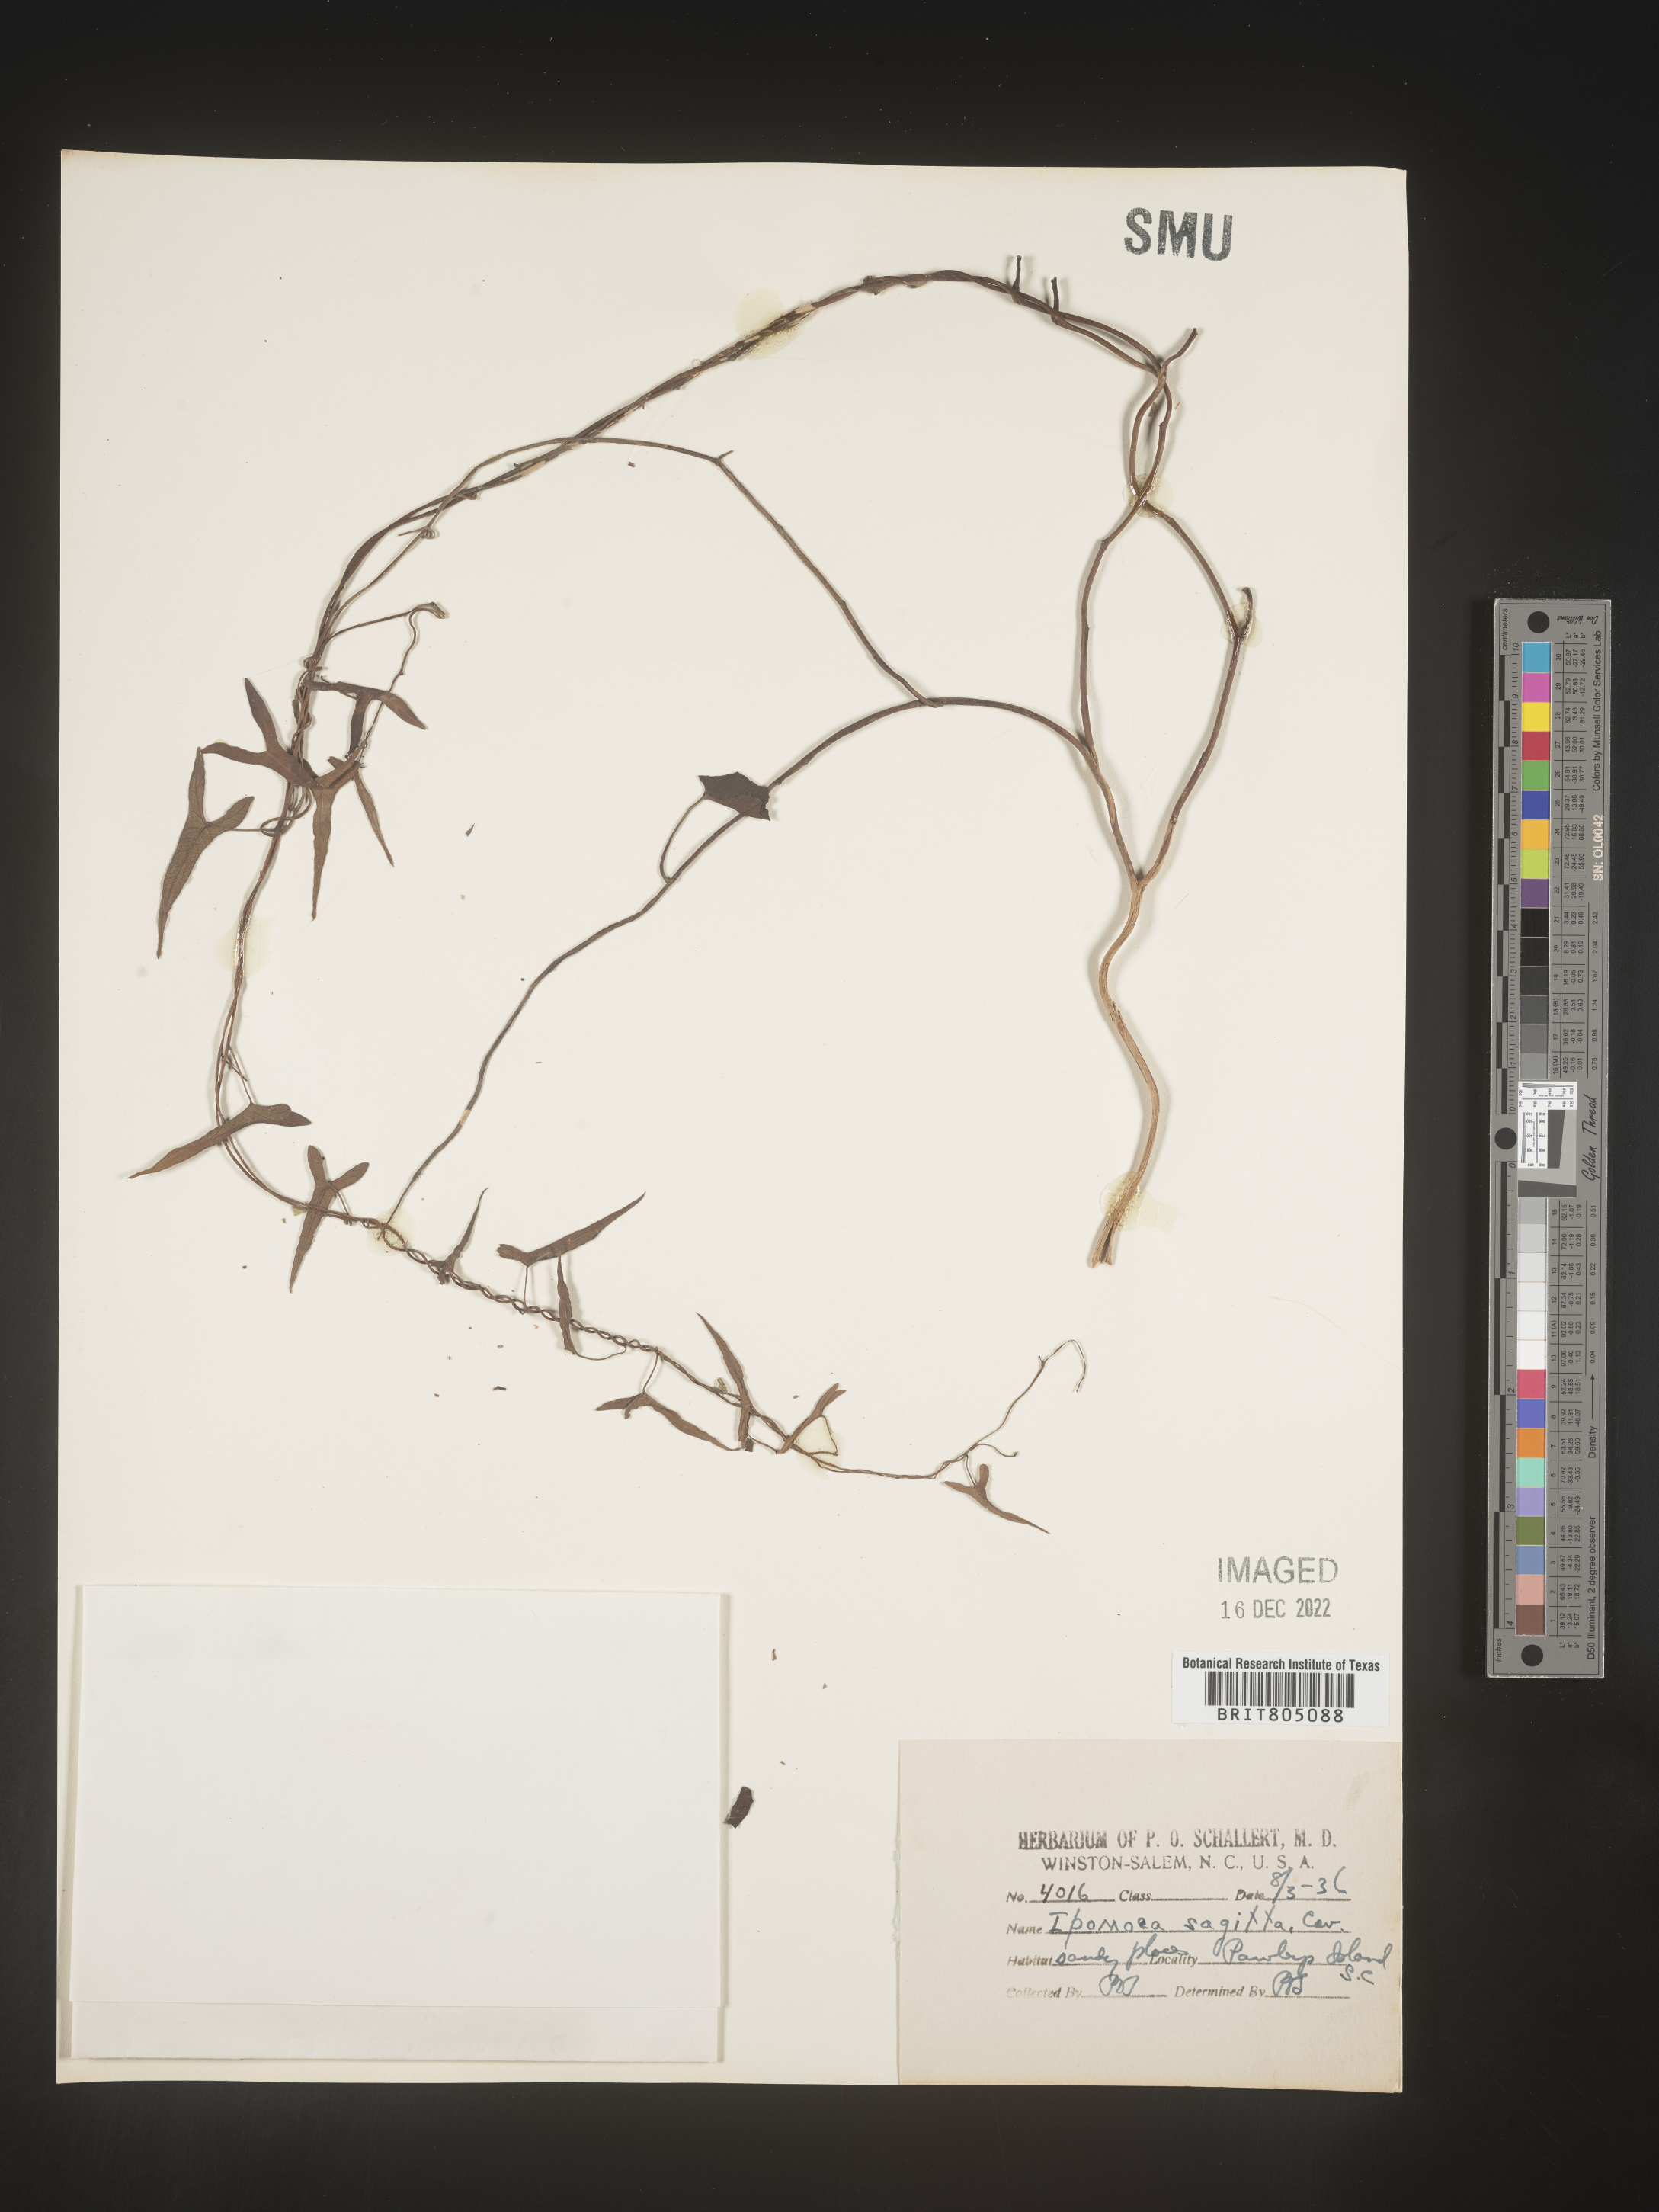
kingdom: Plantae
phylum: Tracheophyta
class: Magnoliopsida
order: Solanales
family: Convolvulaceae
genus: Ipomoea
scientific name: Ipomoea sinensis
